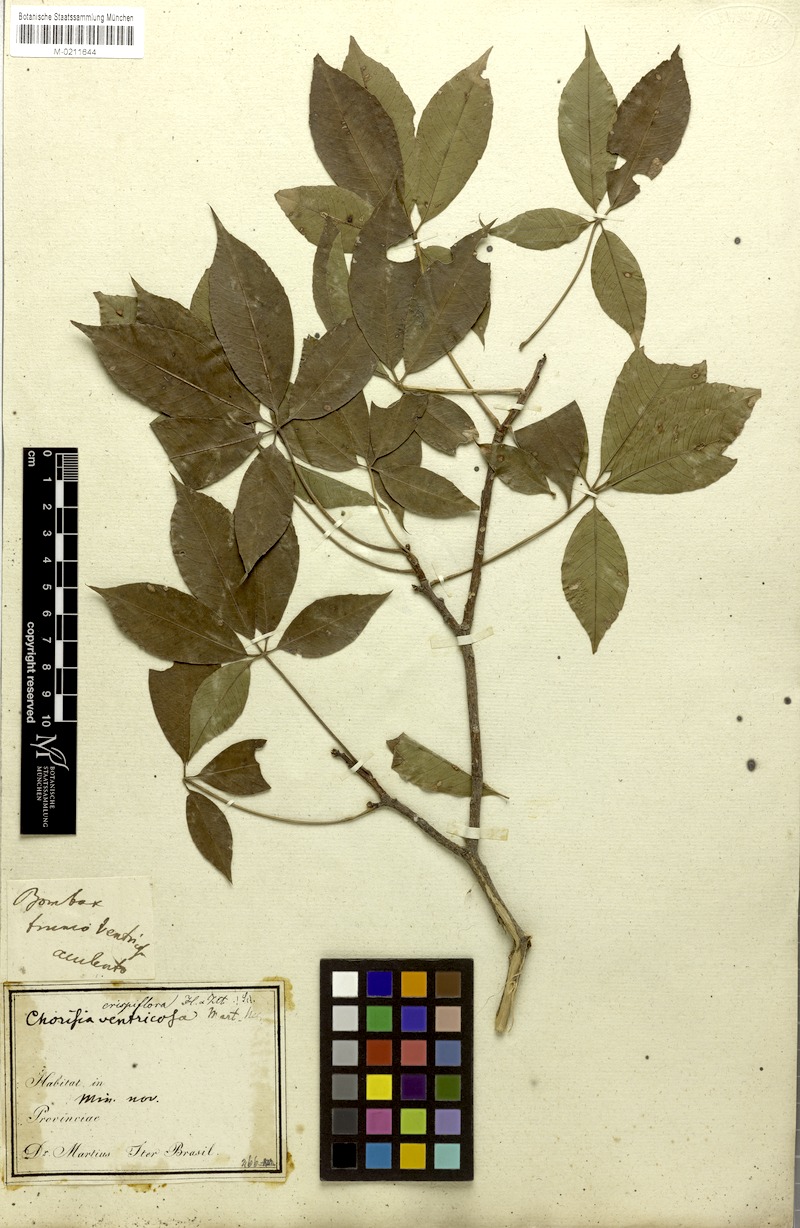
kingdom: Plantae
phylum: Tracheophyta
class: Magnoliopsida
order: Malvales
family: Malvaceae
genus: Ceiba
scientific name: Ceiba crispiflora
